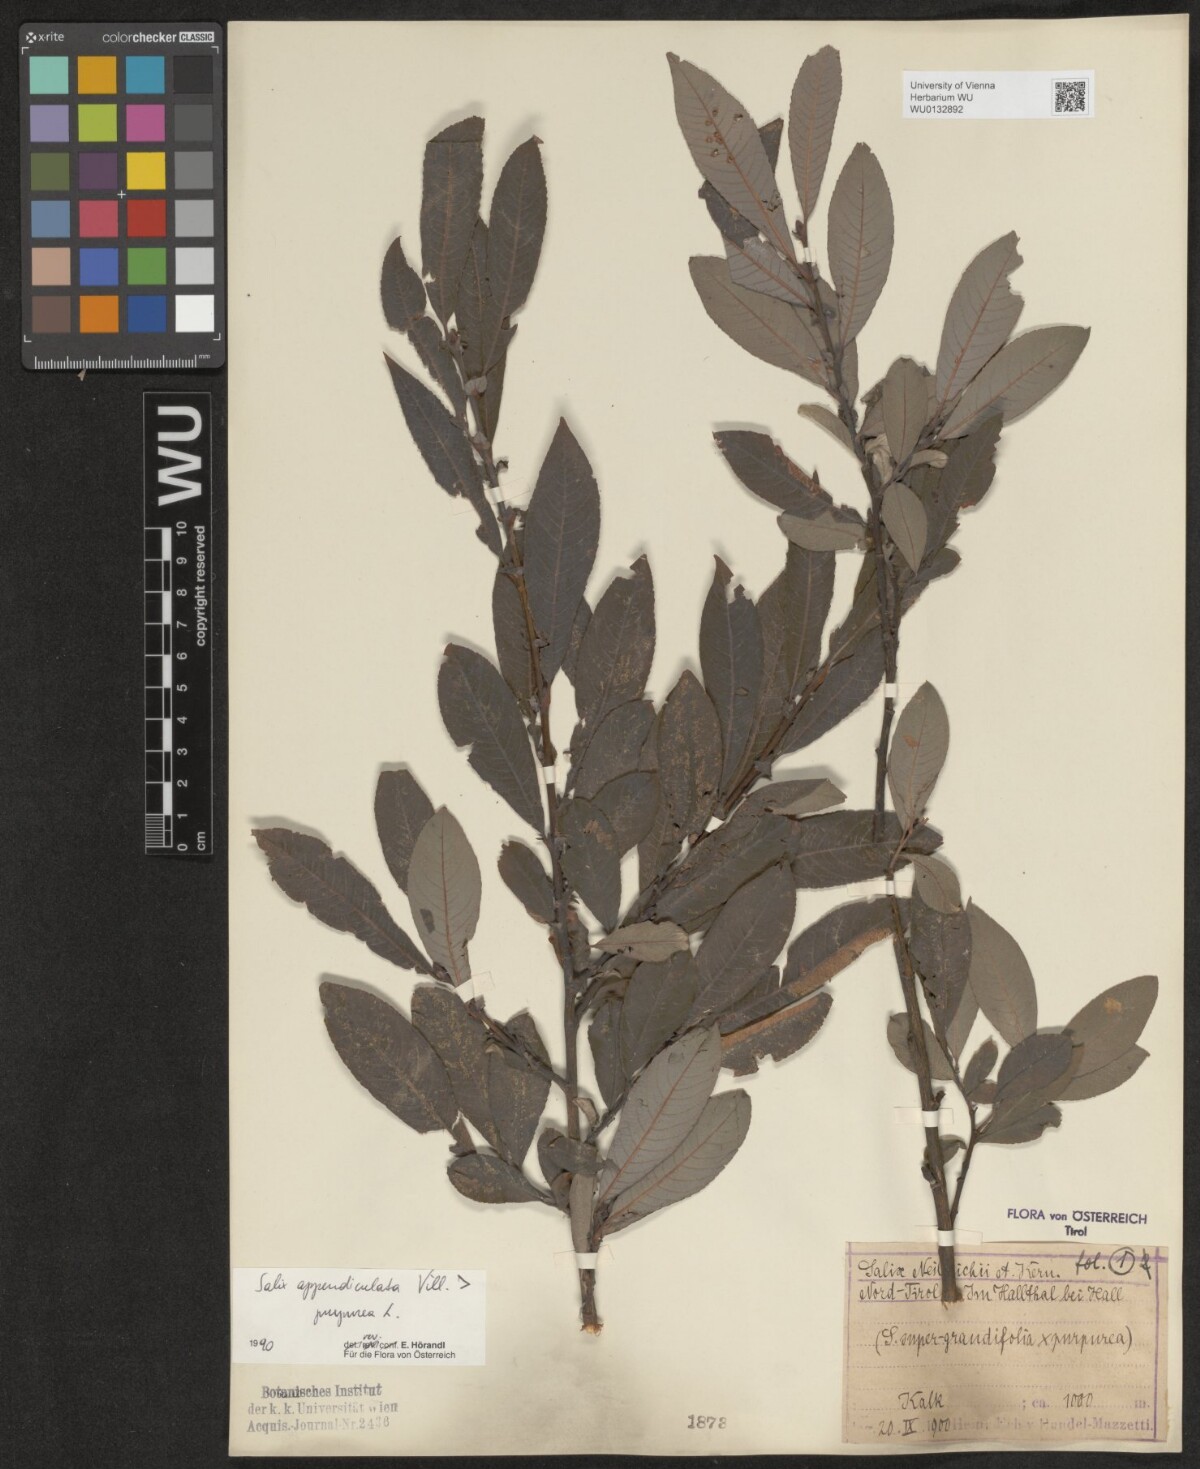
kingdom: Plantae
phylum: Tracheophyta
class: Magnoliopsida
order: Malpighiales
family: Salicaceae
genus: Salix
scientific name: Salix austriaca
